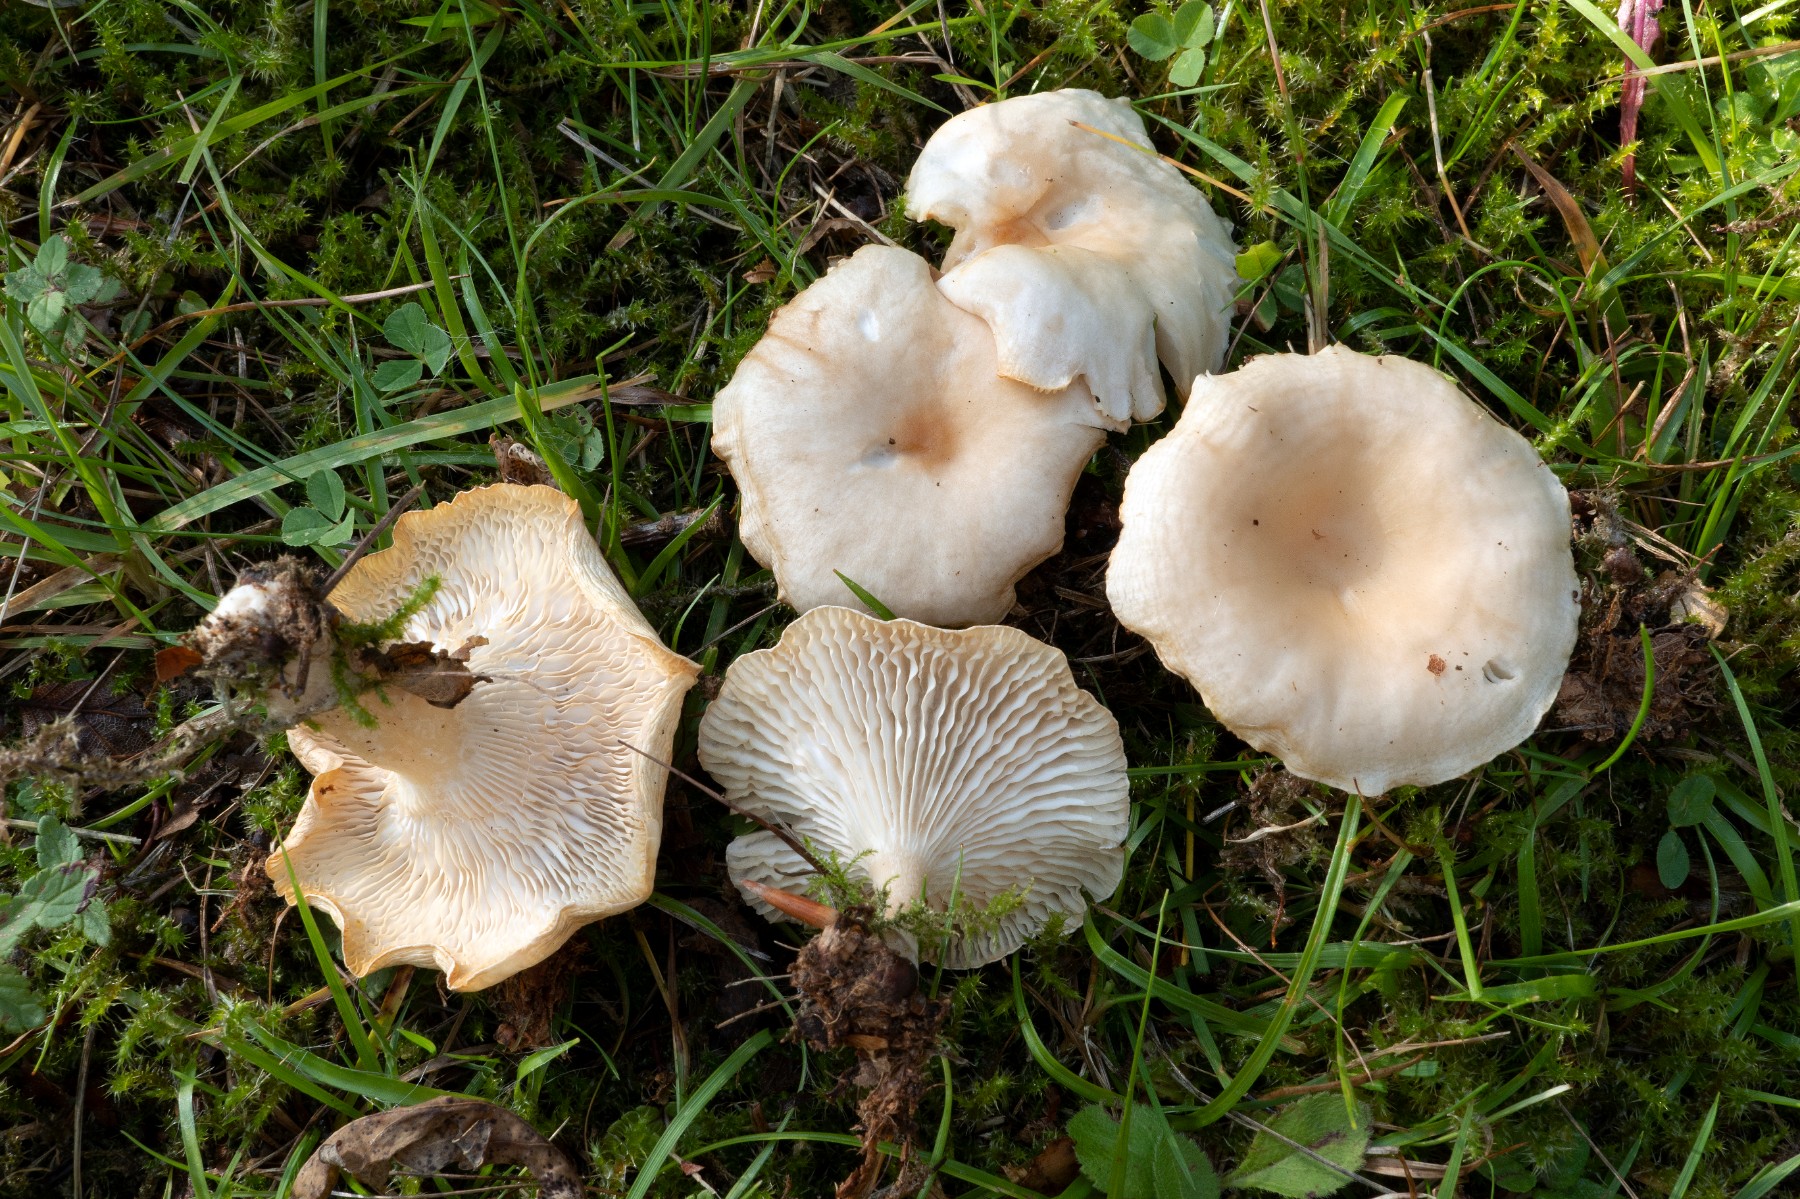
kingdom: Fungi
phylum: Basidiomycota
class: Agaricomycetes
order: Agaricales
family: Tricholomataceae
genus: Infundibulicybe
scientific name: Infundibulicybe gibba
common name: almindelig tragthat
